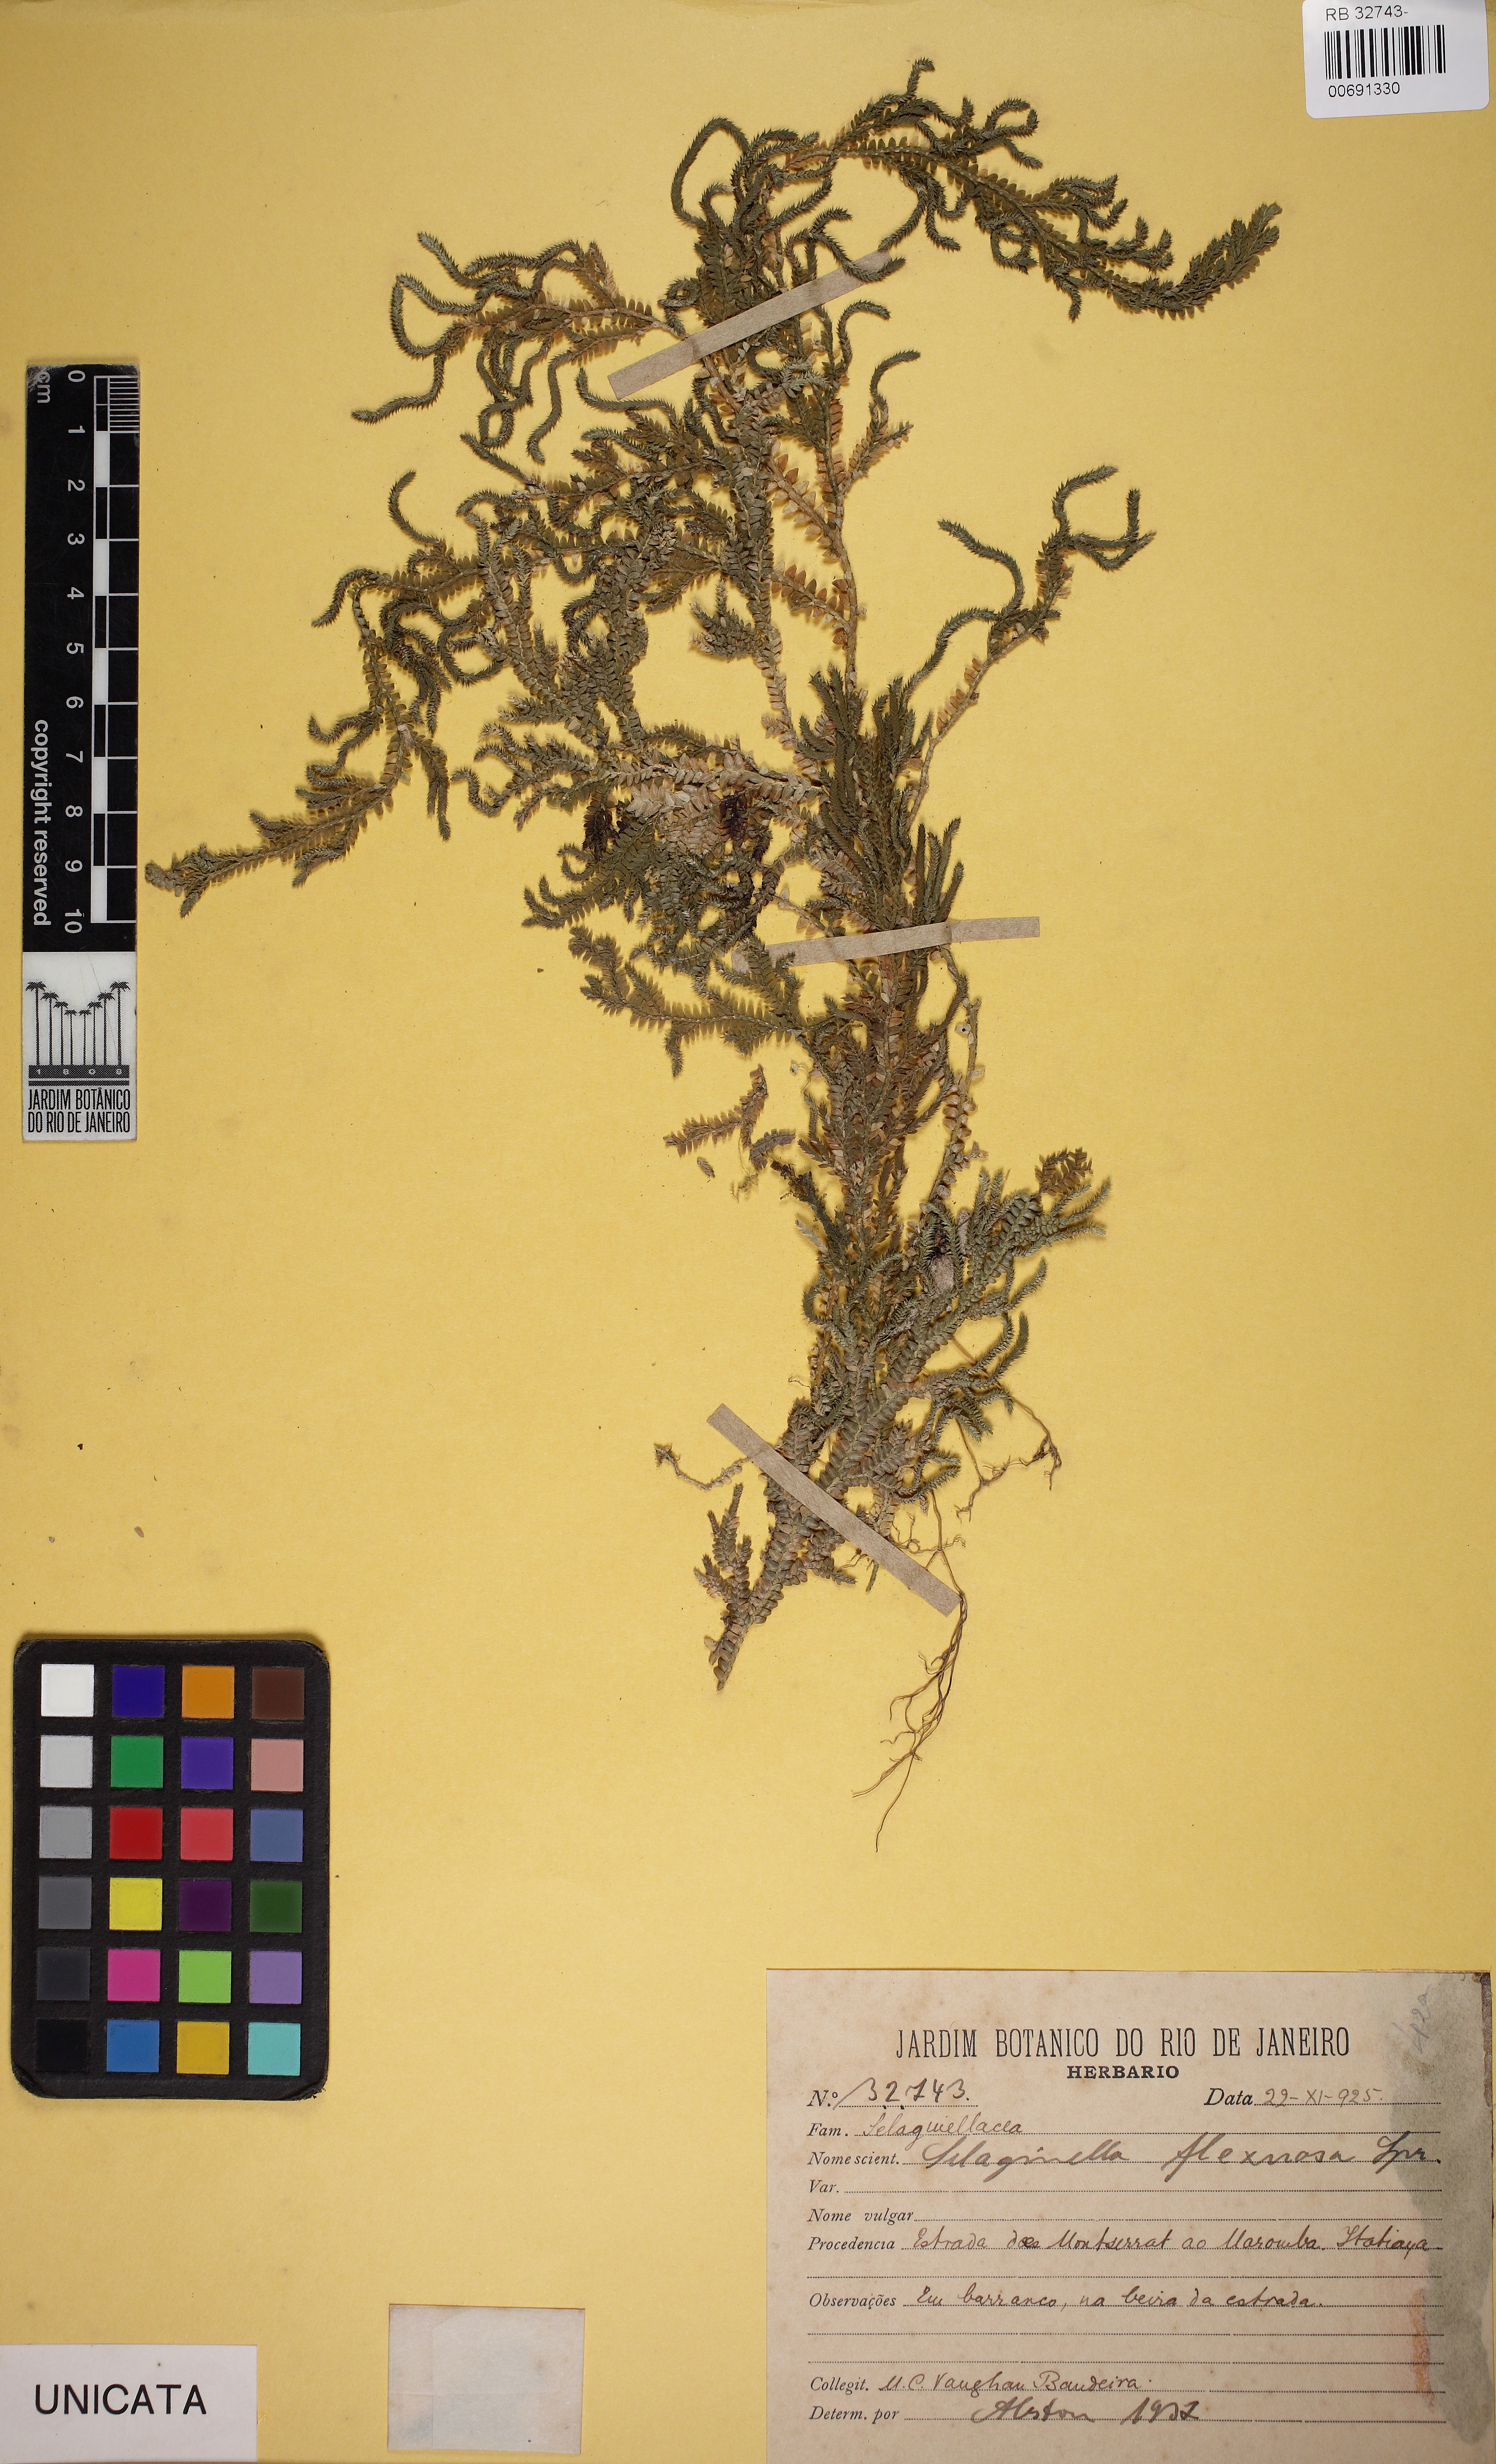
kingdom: Plantae
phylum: Tracheophyta
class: Lycopodiopsida
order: Selaginellales
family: Selaginellaceae
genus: Selaginella
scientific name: Selaginella flexuosa
